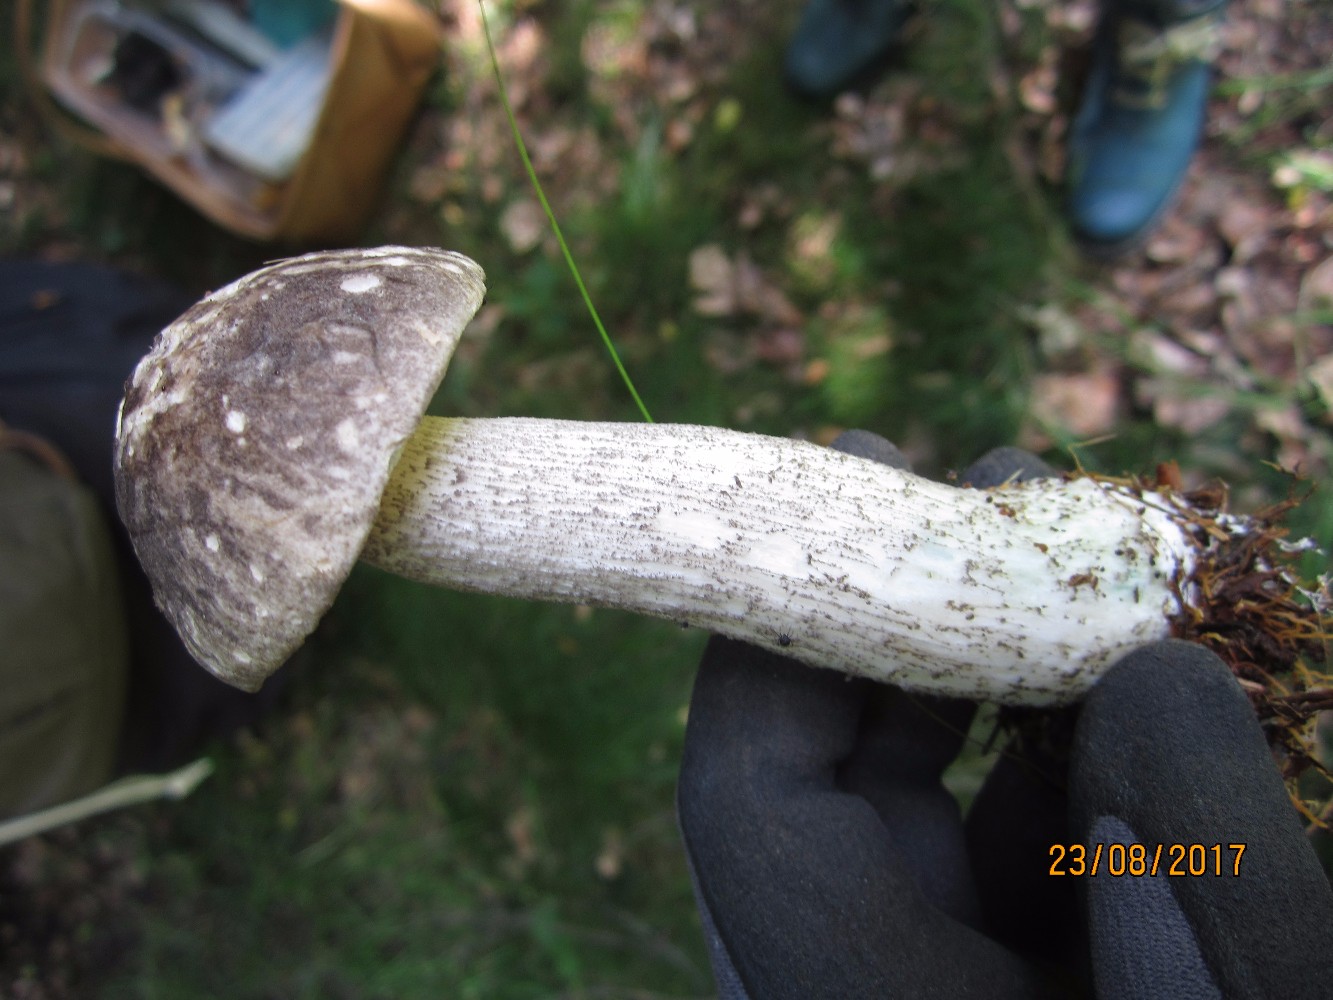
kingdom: Fungi
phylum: Basidiomycota
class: Agaricomycetes
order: Boletales
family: Boletaceae
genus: Leccinum
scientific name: Leccinum variicolor
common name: flammet skælrørhat
